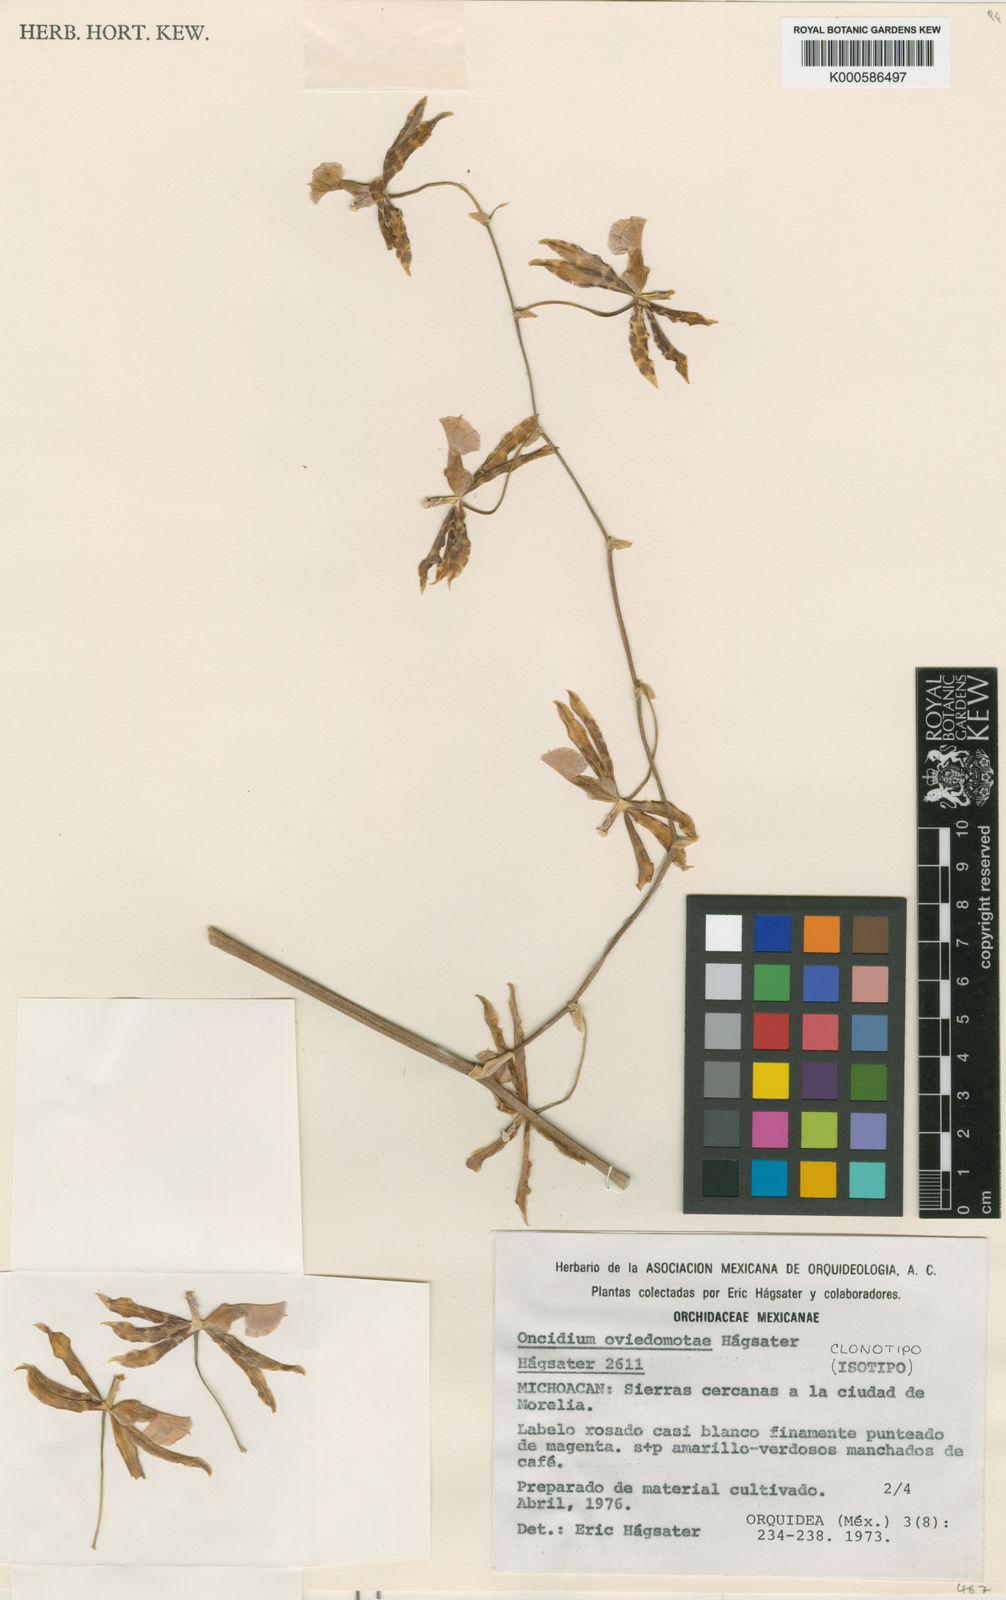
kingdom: Plantae
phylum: Tracheophyta
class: Liliopsida
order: Asparagales
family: Orchidaceae
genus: Oncidium
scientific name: Oncidium
